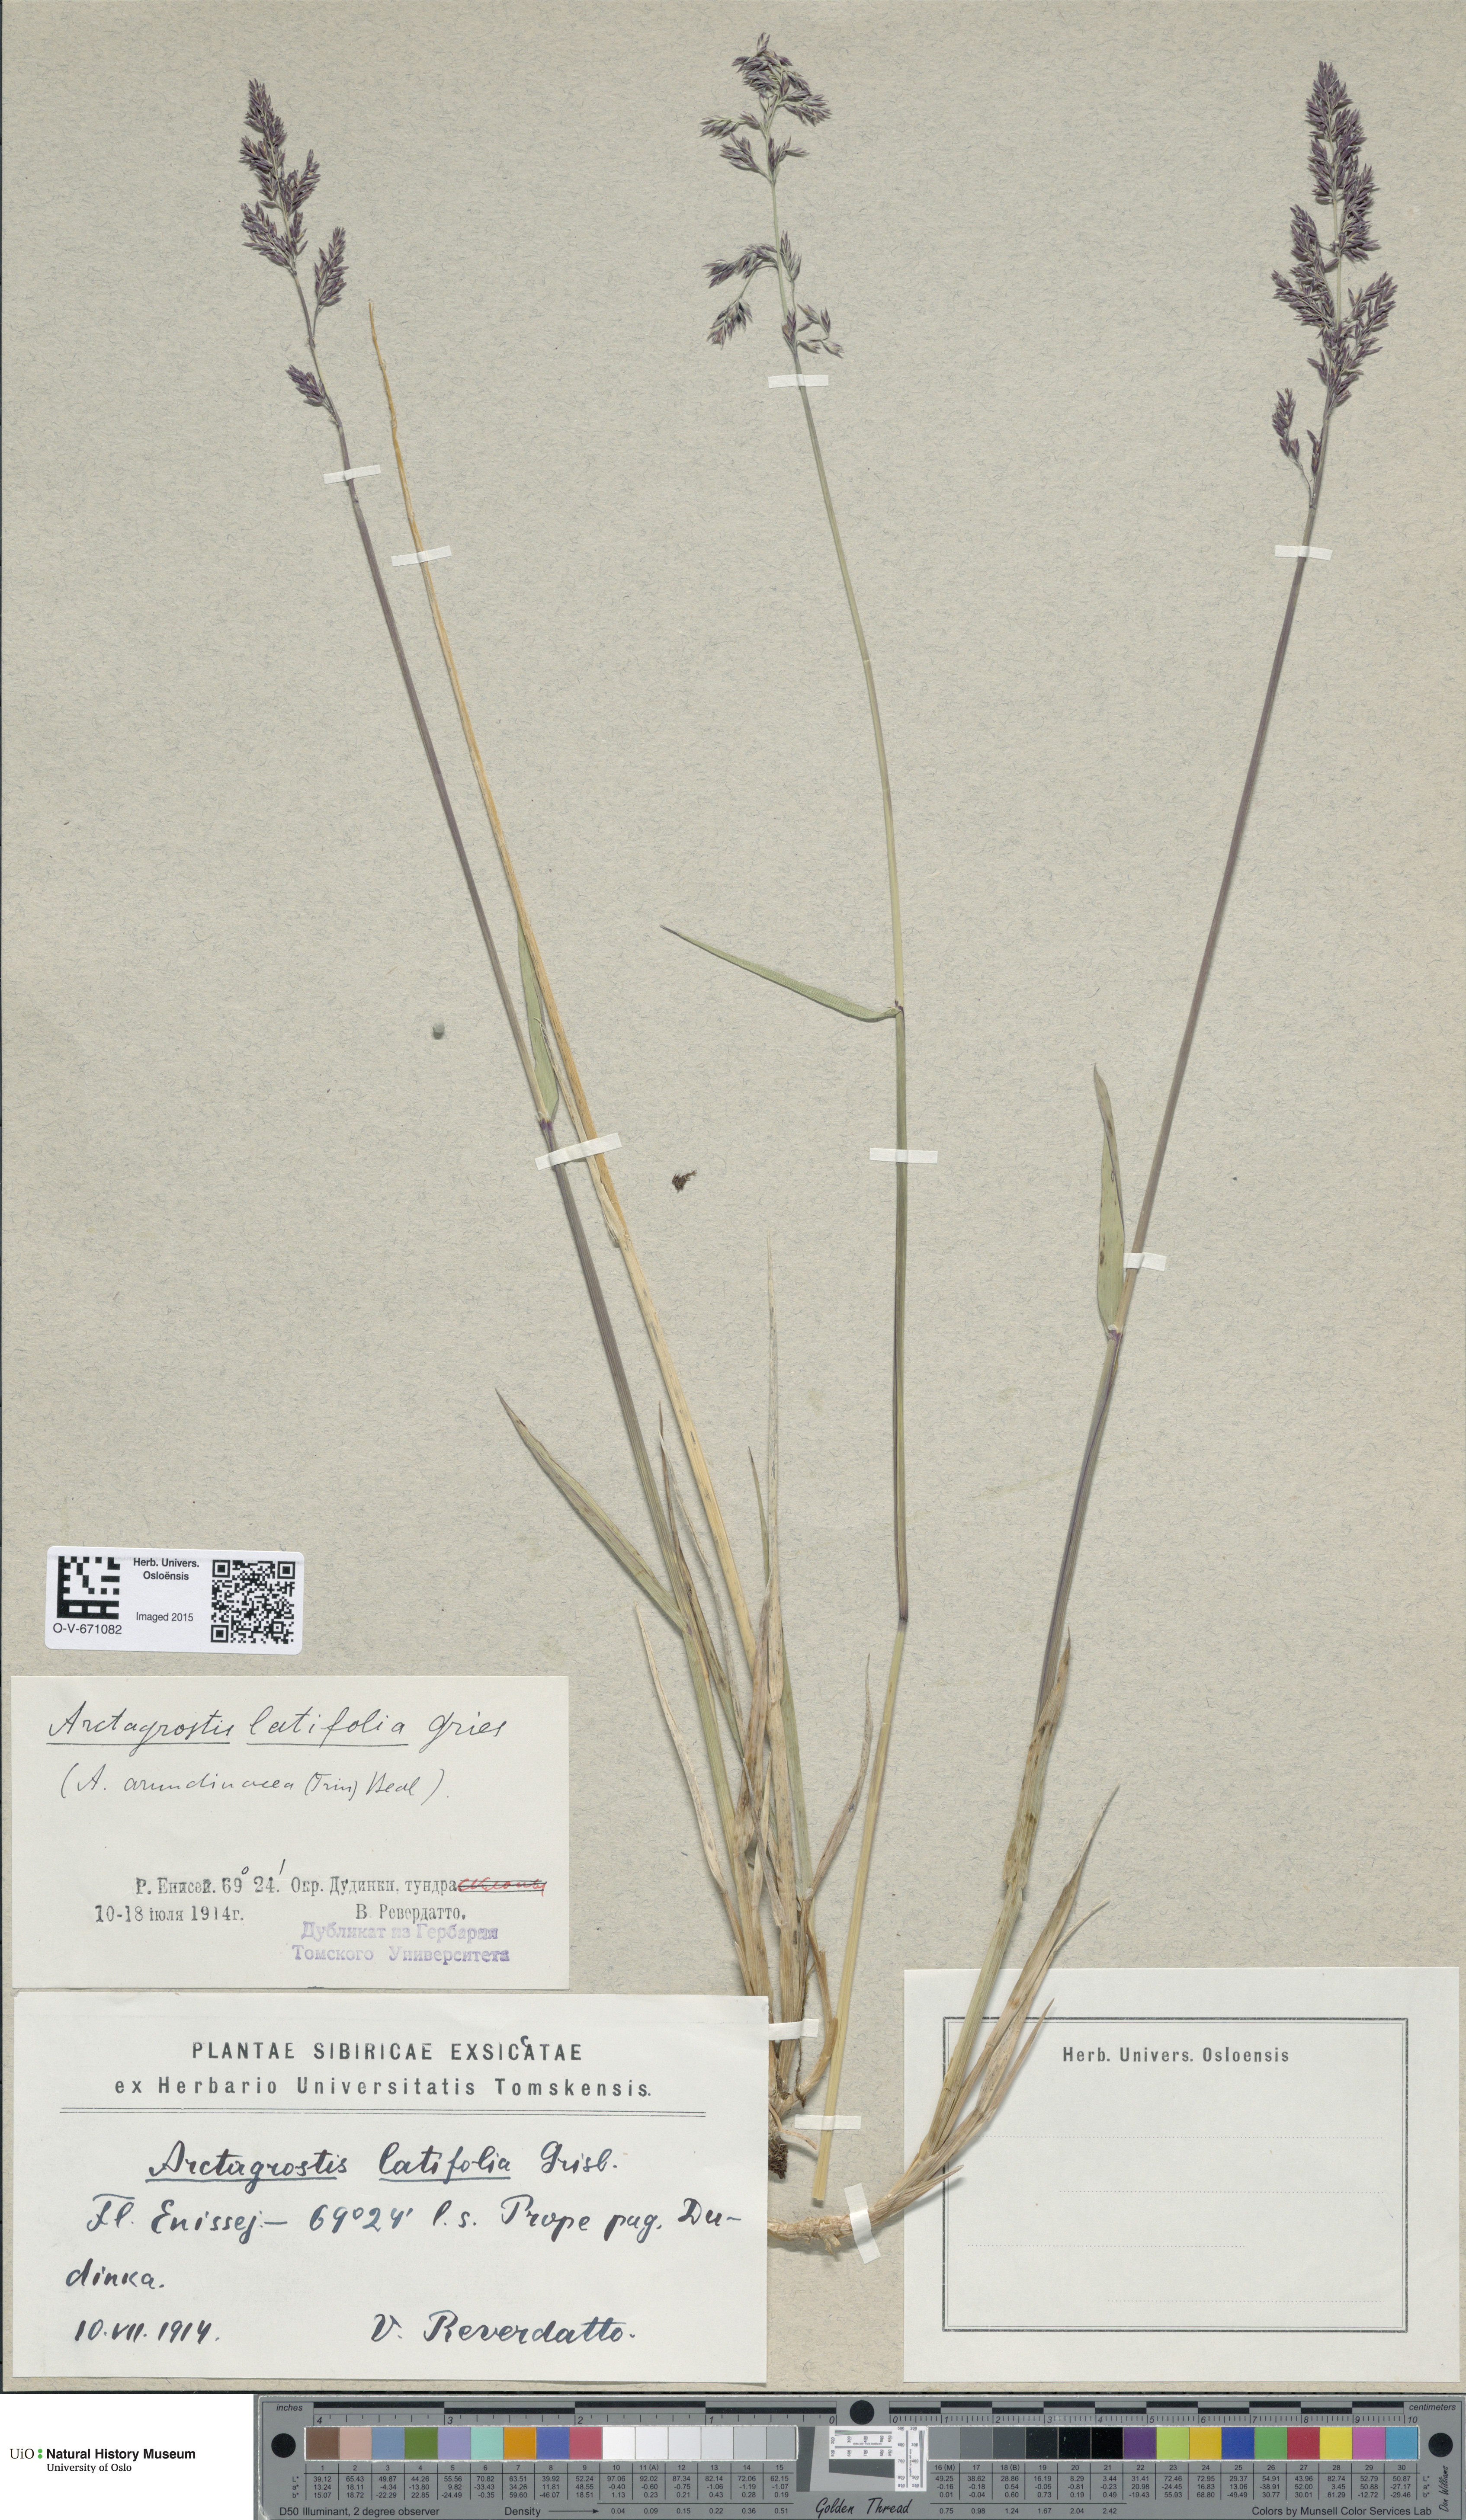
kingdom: Plantae
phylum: Tracheophyta
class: Liliopsida
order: Poales
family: Poaceae
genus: Arctagrostis
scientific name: Arctagrostis latifolia
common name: Arctic grass
